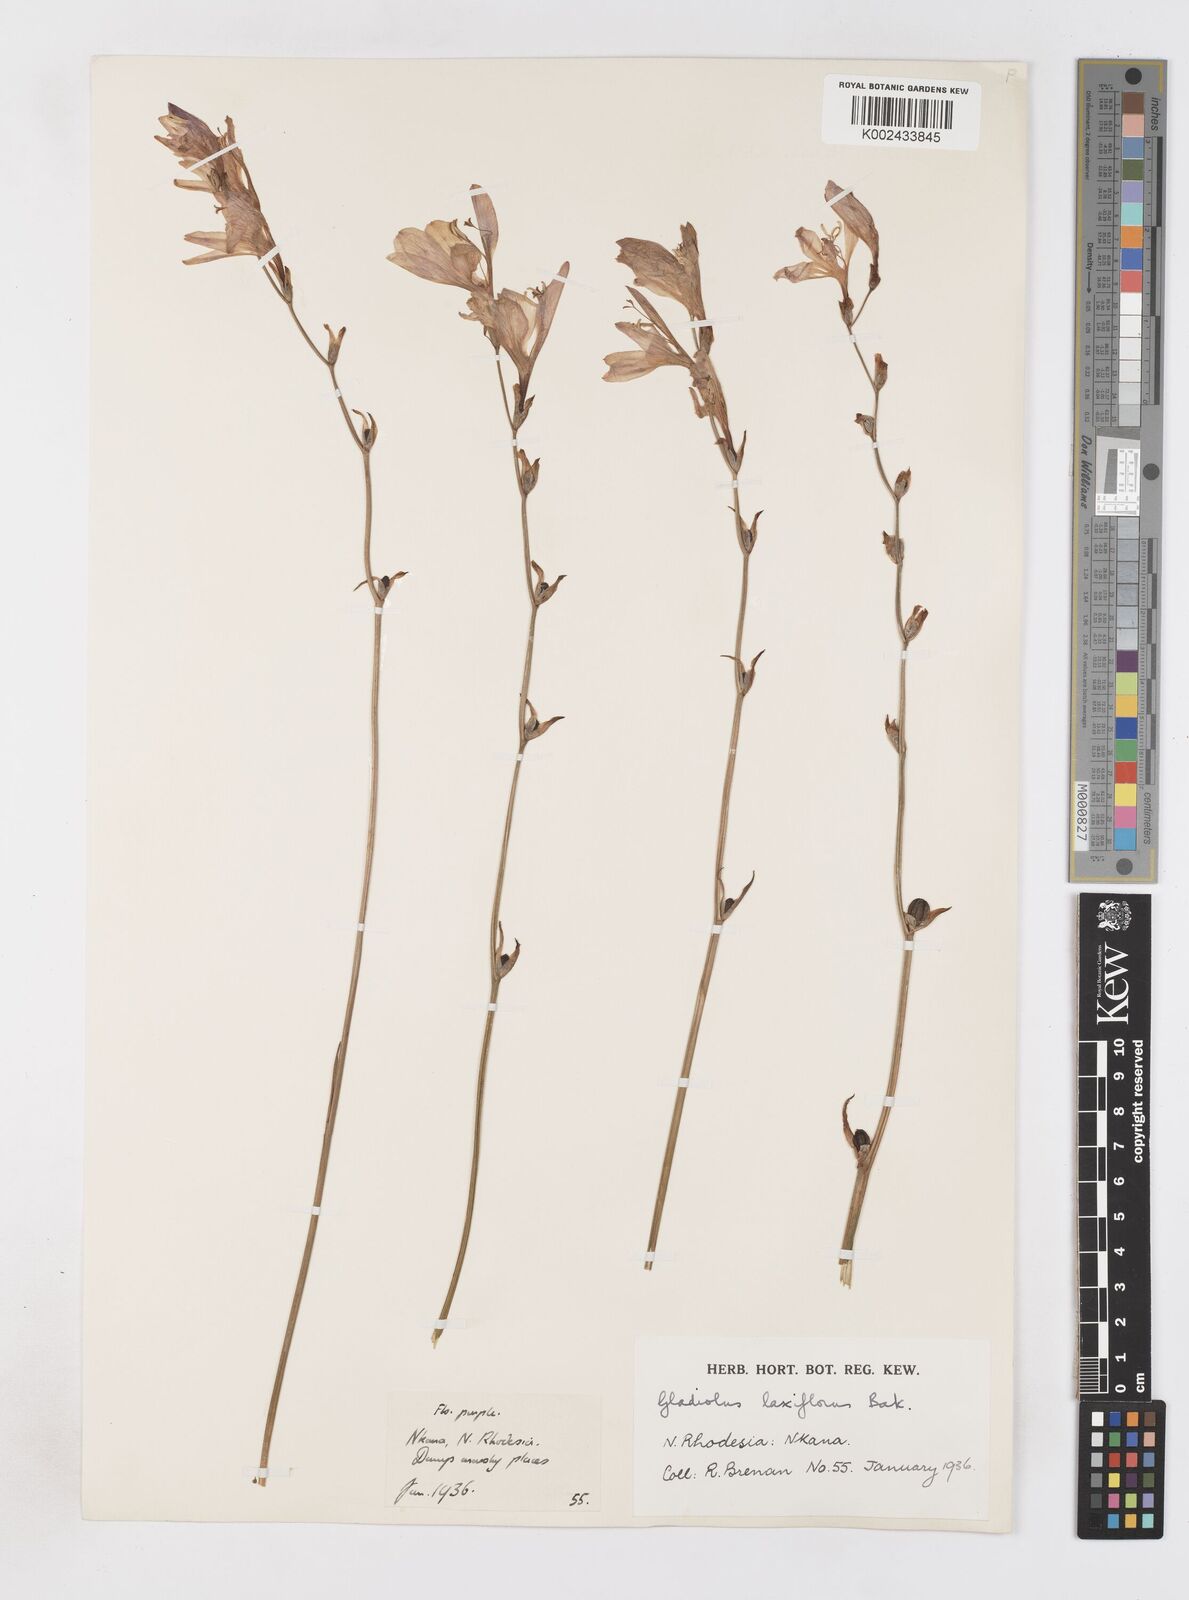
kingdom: Plantae
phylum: Tracheophyta
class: Liliopsida
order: Asparagales
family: Iridaceae
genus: Gladiolus
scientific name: Gladiolus laxiflorus
